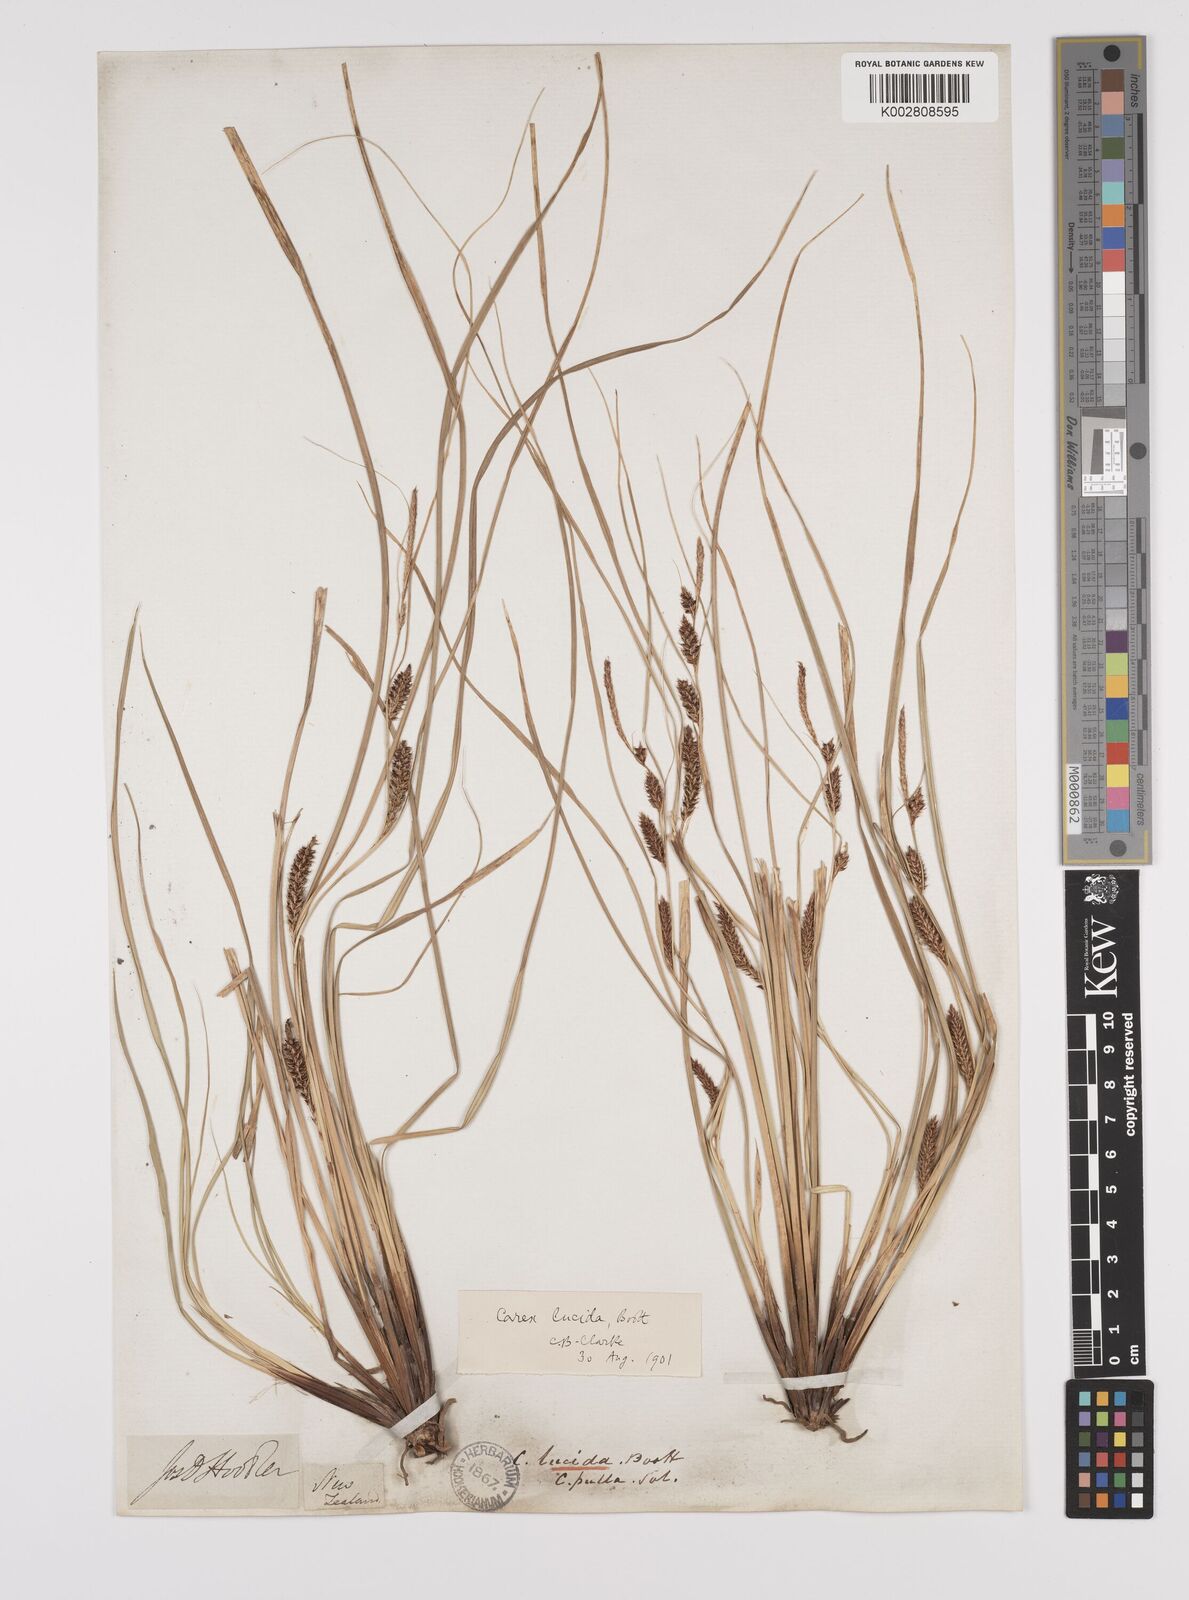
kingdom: Plantae
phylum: Tracheophyta
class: Liliopsida
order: Poales
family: Cyperaceae
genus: Carex
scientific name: Carex flagellifera
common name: Glen murray tussock
